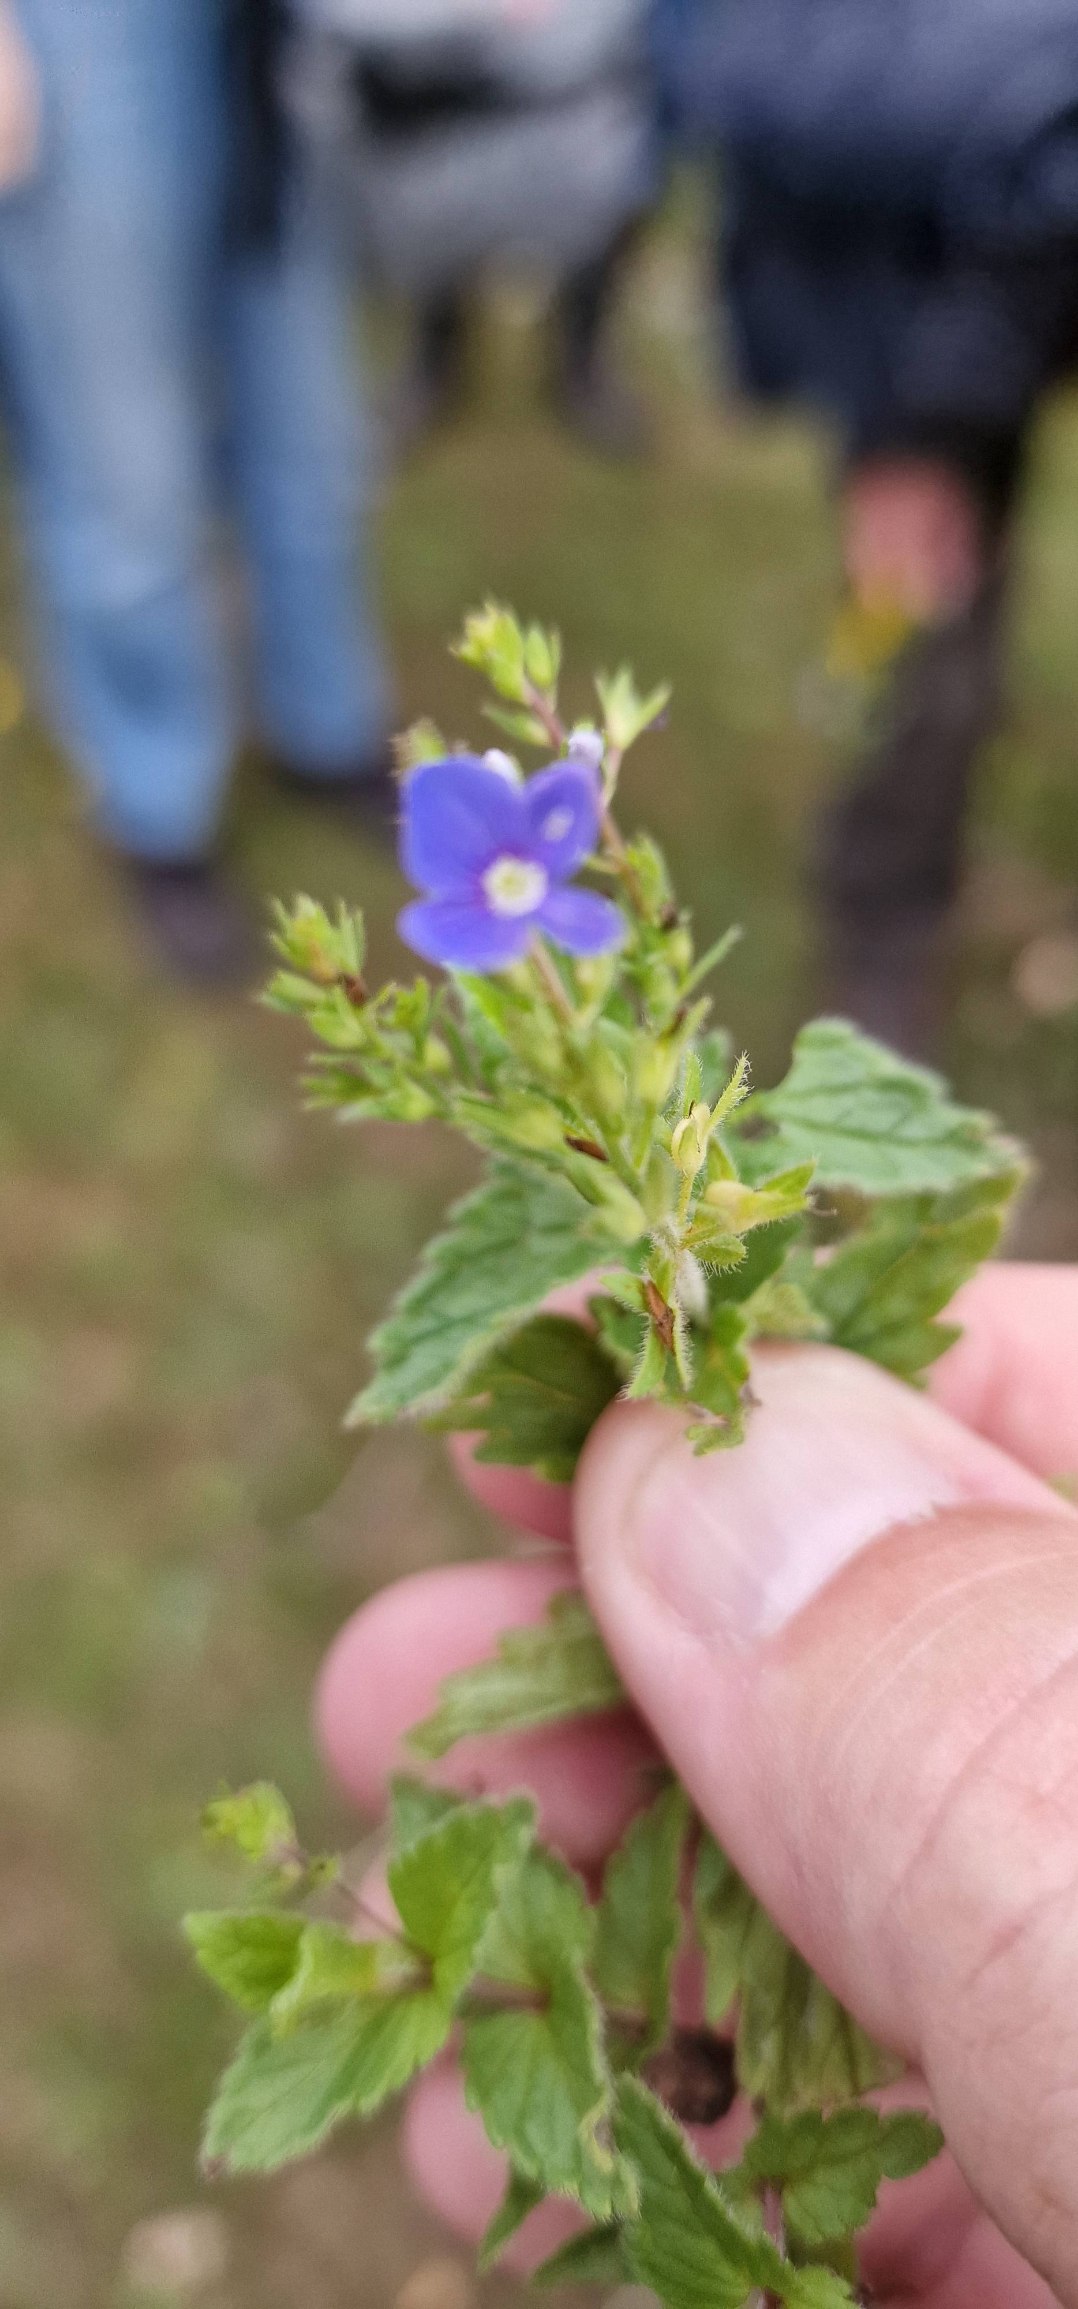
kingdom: Plantae
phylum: Tracheophyta
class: Magnoliopsida
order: Lamiales
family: Plantaginaceae
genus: Veronica
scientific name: Veronica chamaedrys
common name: Tveskægget ærenpris
